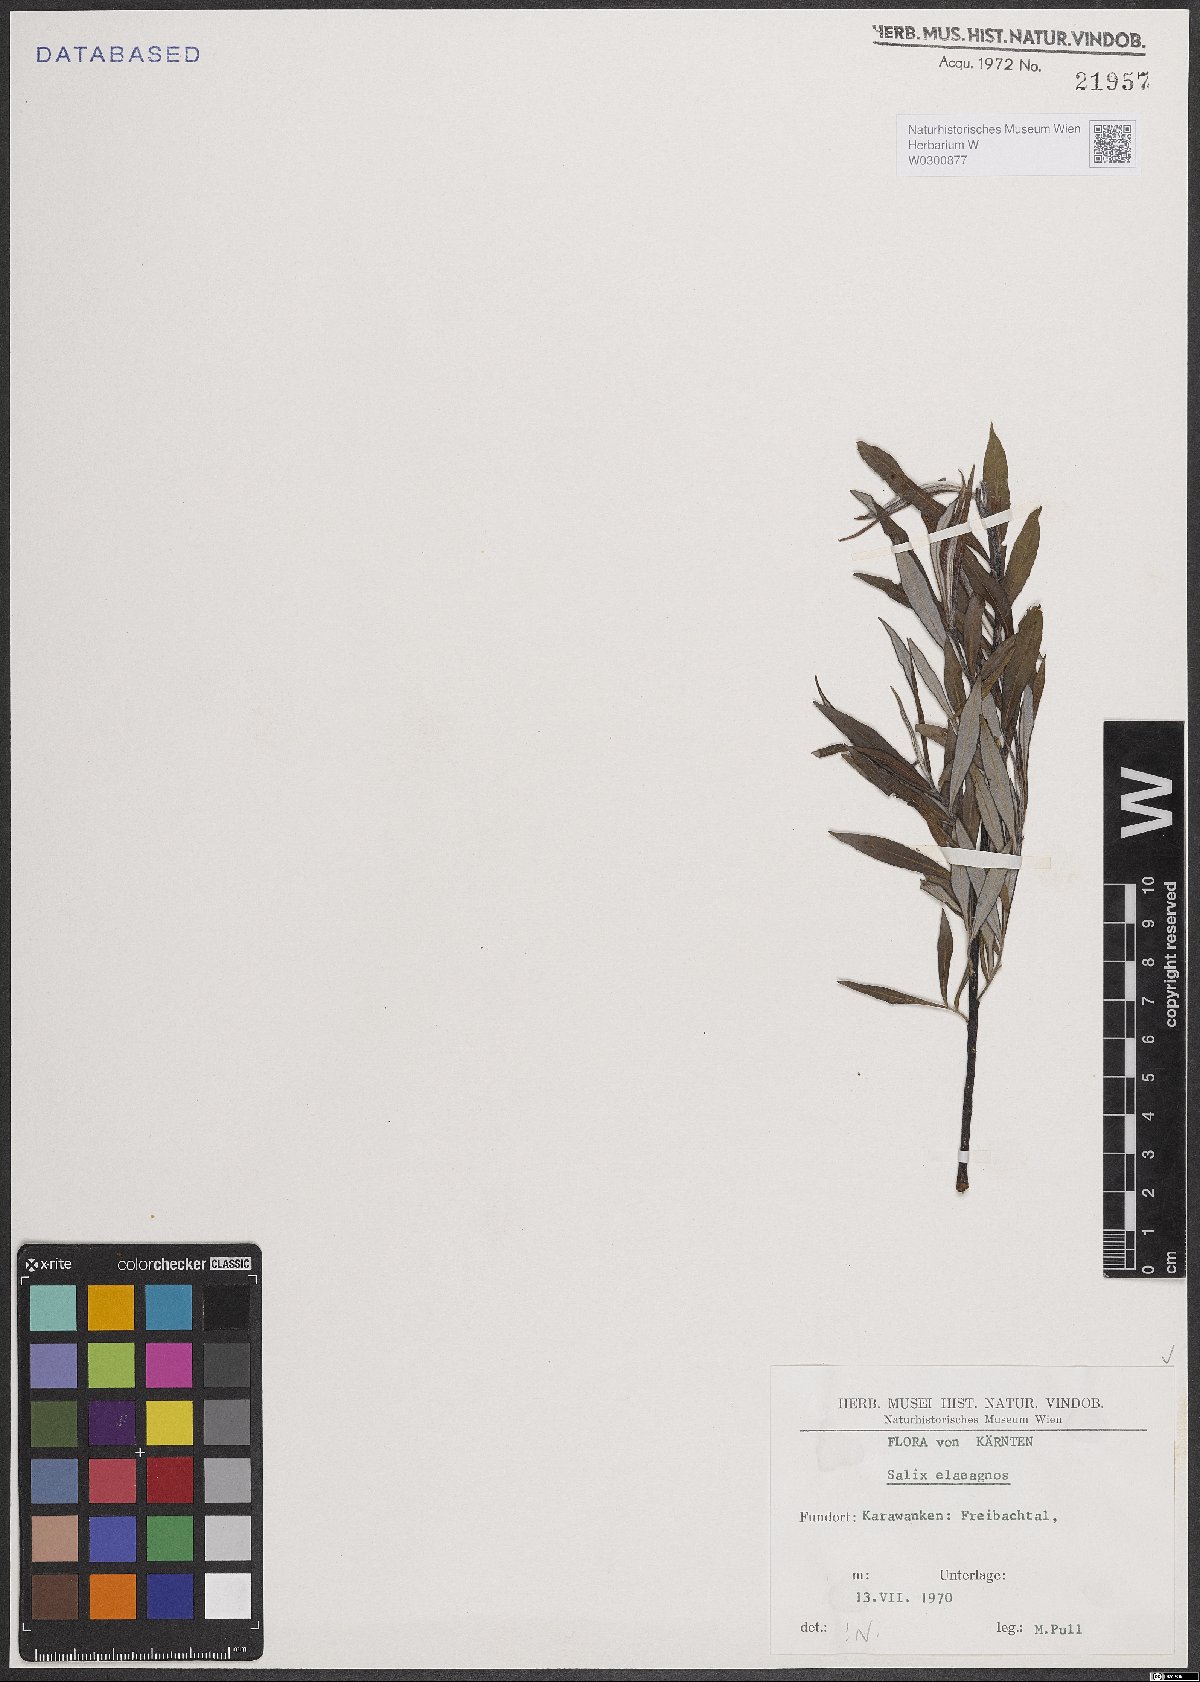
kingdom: Plantae
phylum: Tracheophyta
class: Magnoliopsida
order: Malpighiales
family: Salicaceae
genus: Salix
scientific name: Salix eleagnos
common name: Elaeagnus willow
